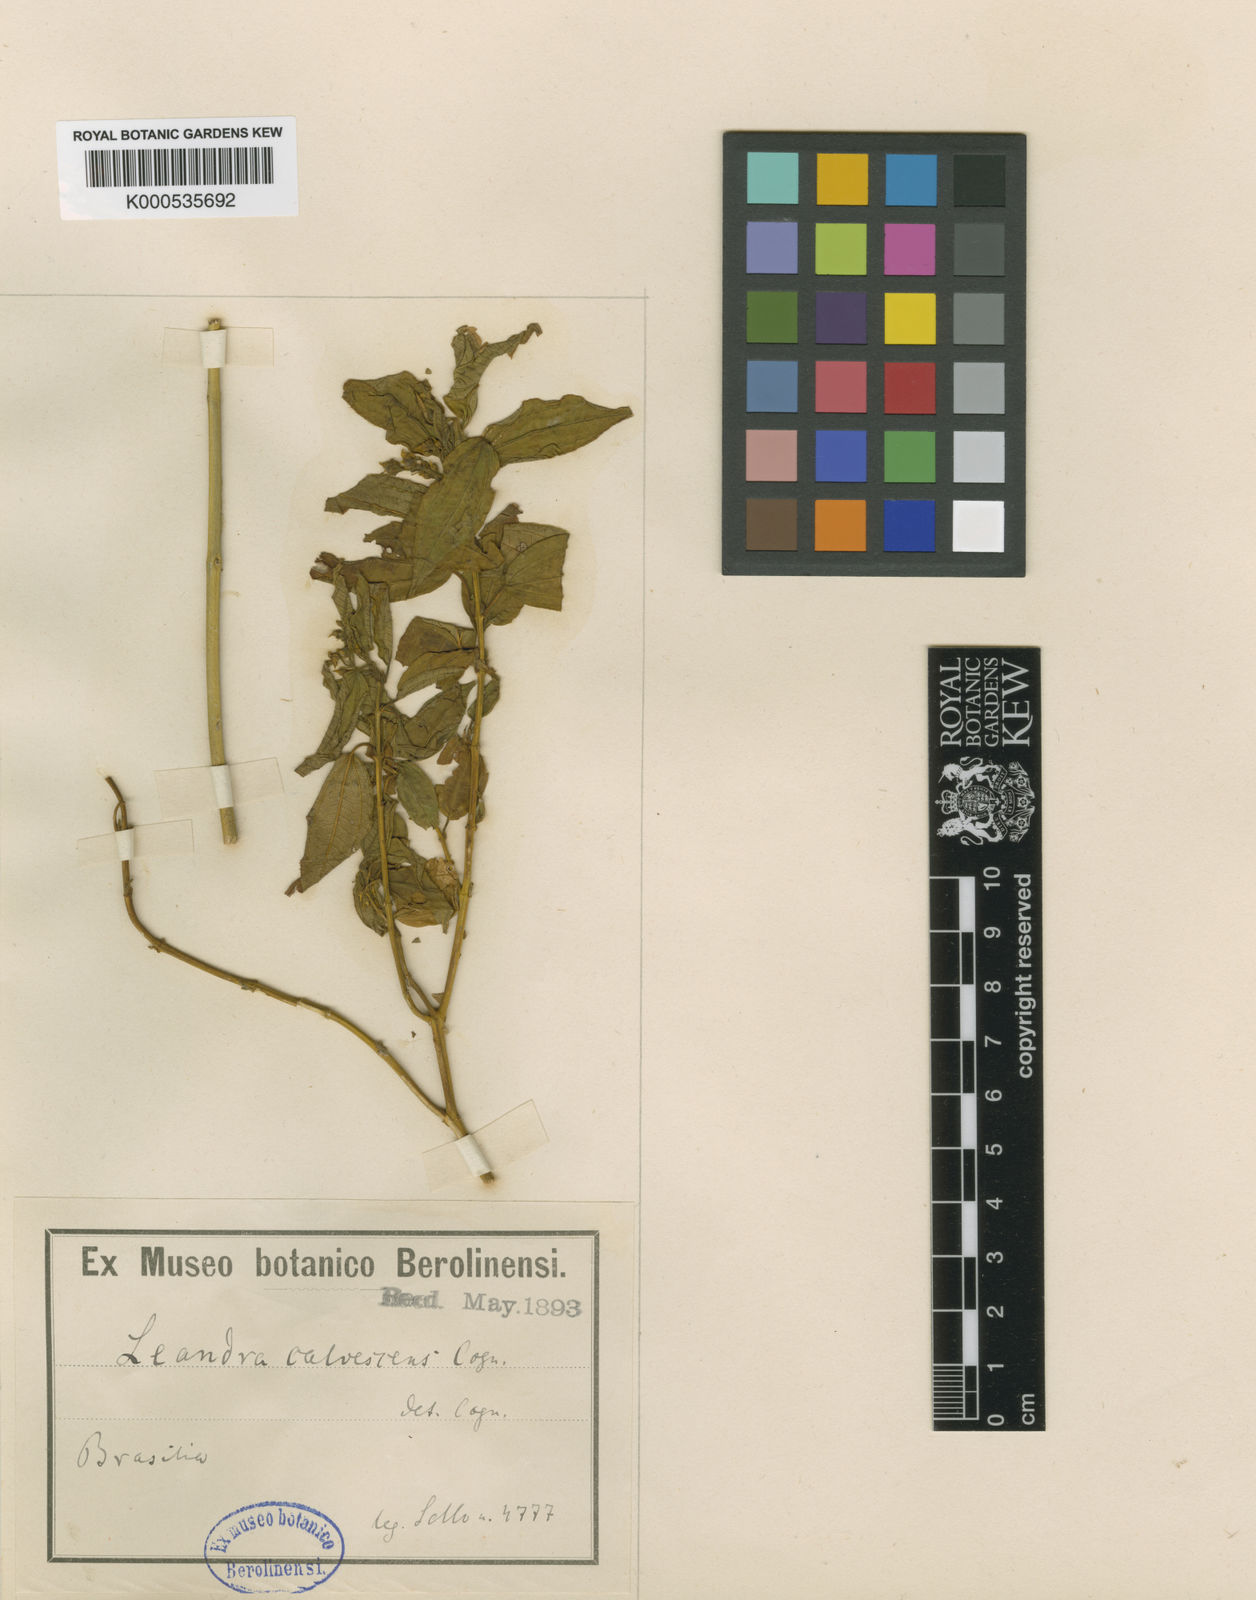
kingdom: Plantae
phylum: Tracheophyta
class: Magnoliopsida
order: Myrtales
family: Melastomataceae
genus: Miconia
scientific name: Miconia leacalvescens
